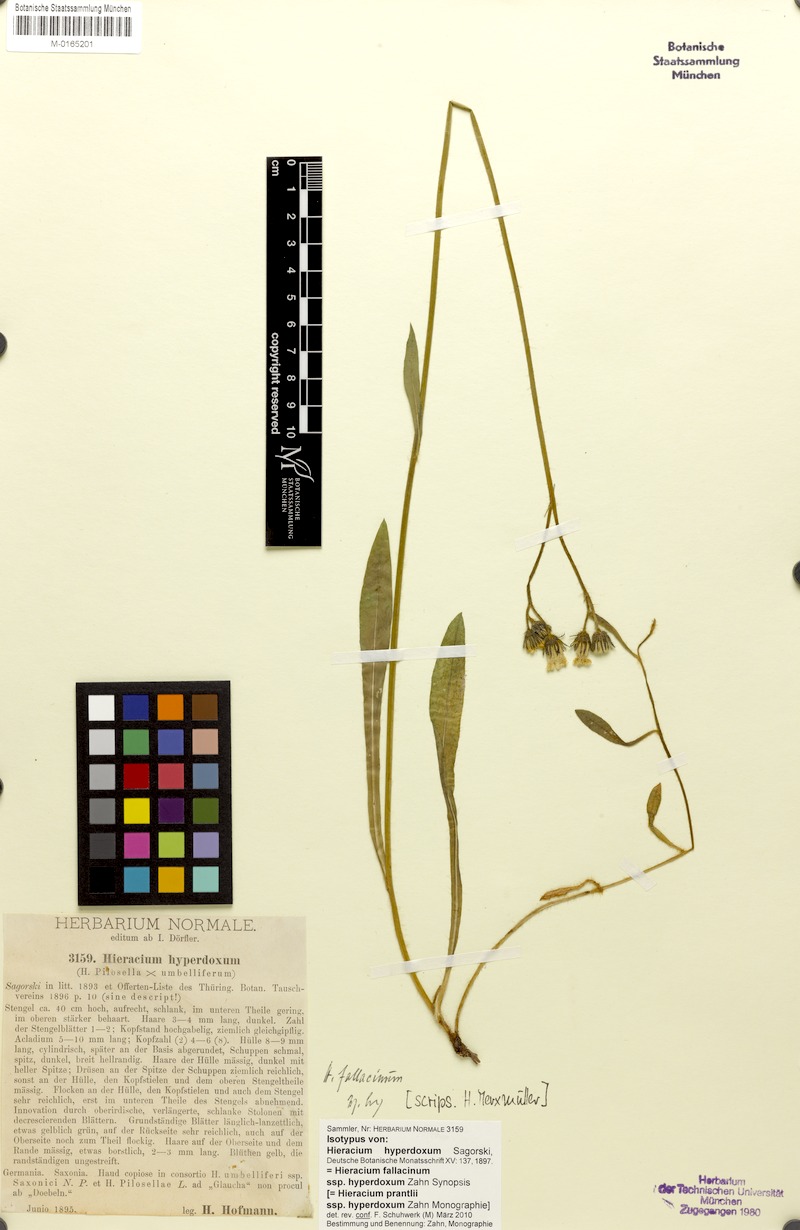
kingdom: Plantae
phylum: Tracheophyta
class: Magnoliopsida
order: Asterales
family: Asteraceae
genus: Pilosella
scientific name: Pilosella fallacina
